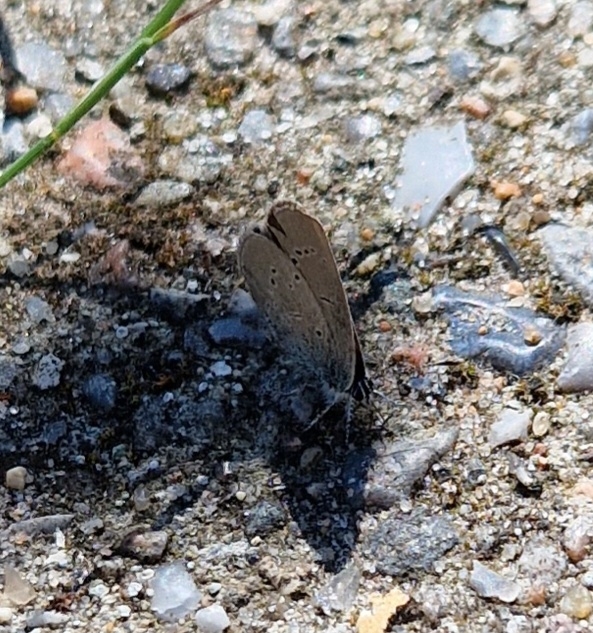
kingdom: Animalia
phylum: Arthropoda
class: Insecta
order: Lepidoptera
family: Lycaenidae
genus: Cupido
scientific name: Cupido minimus
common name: Dværgblåfugl
